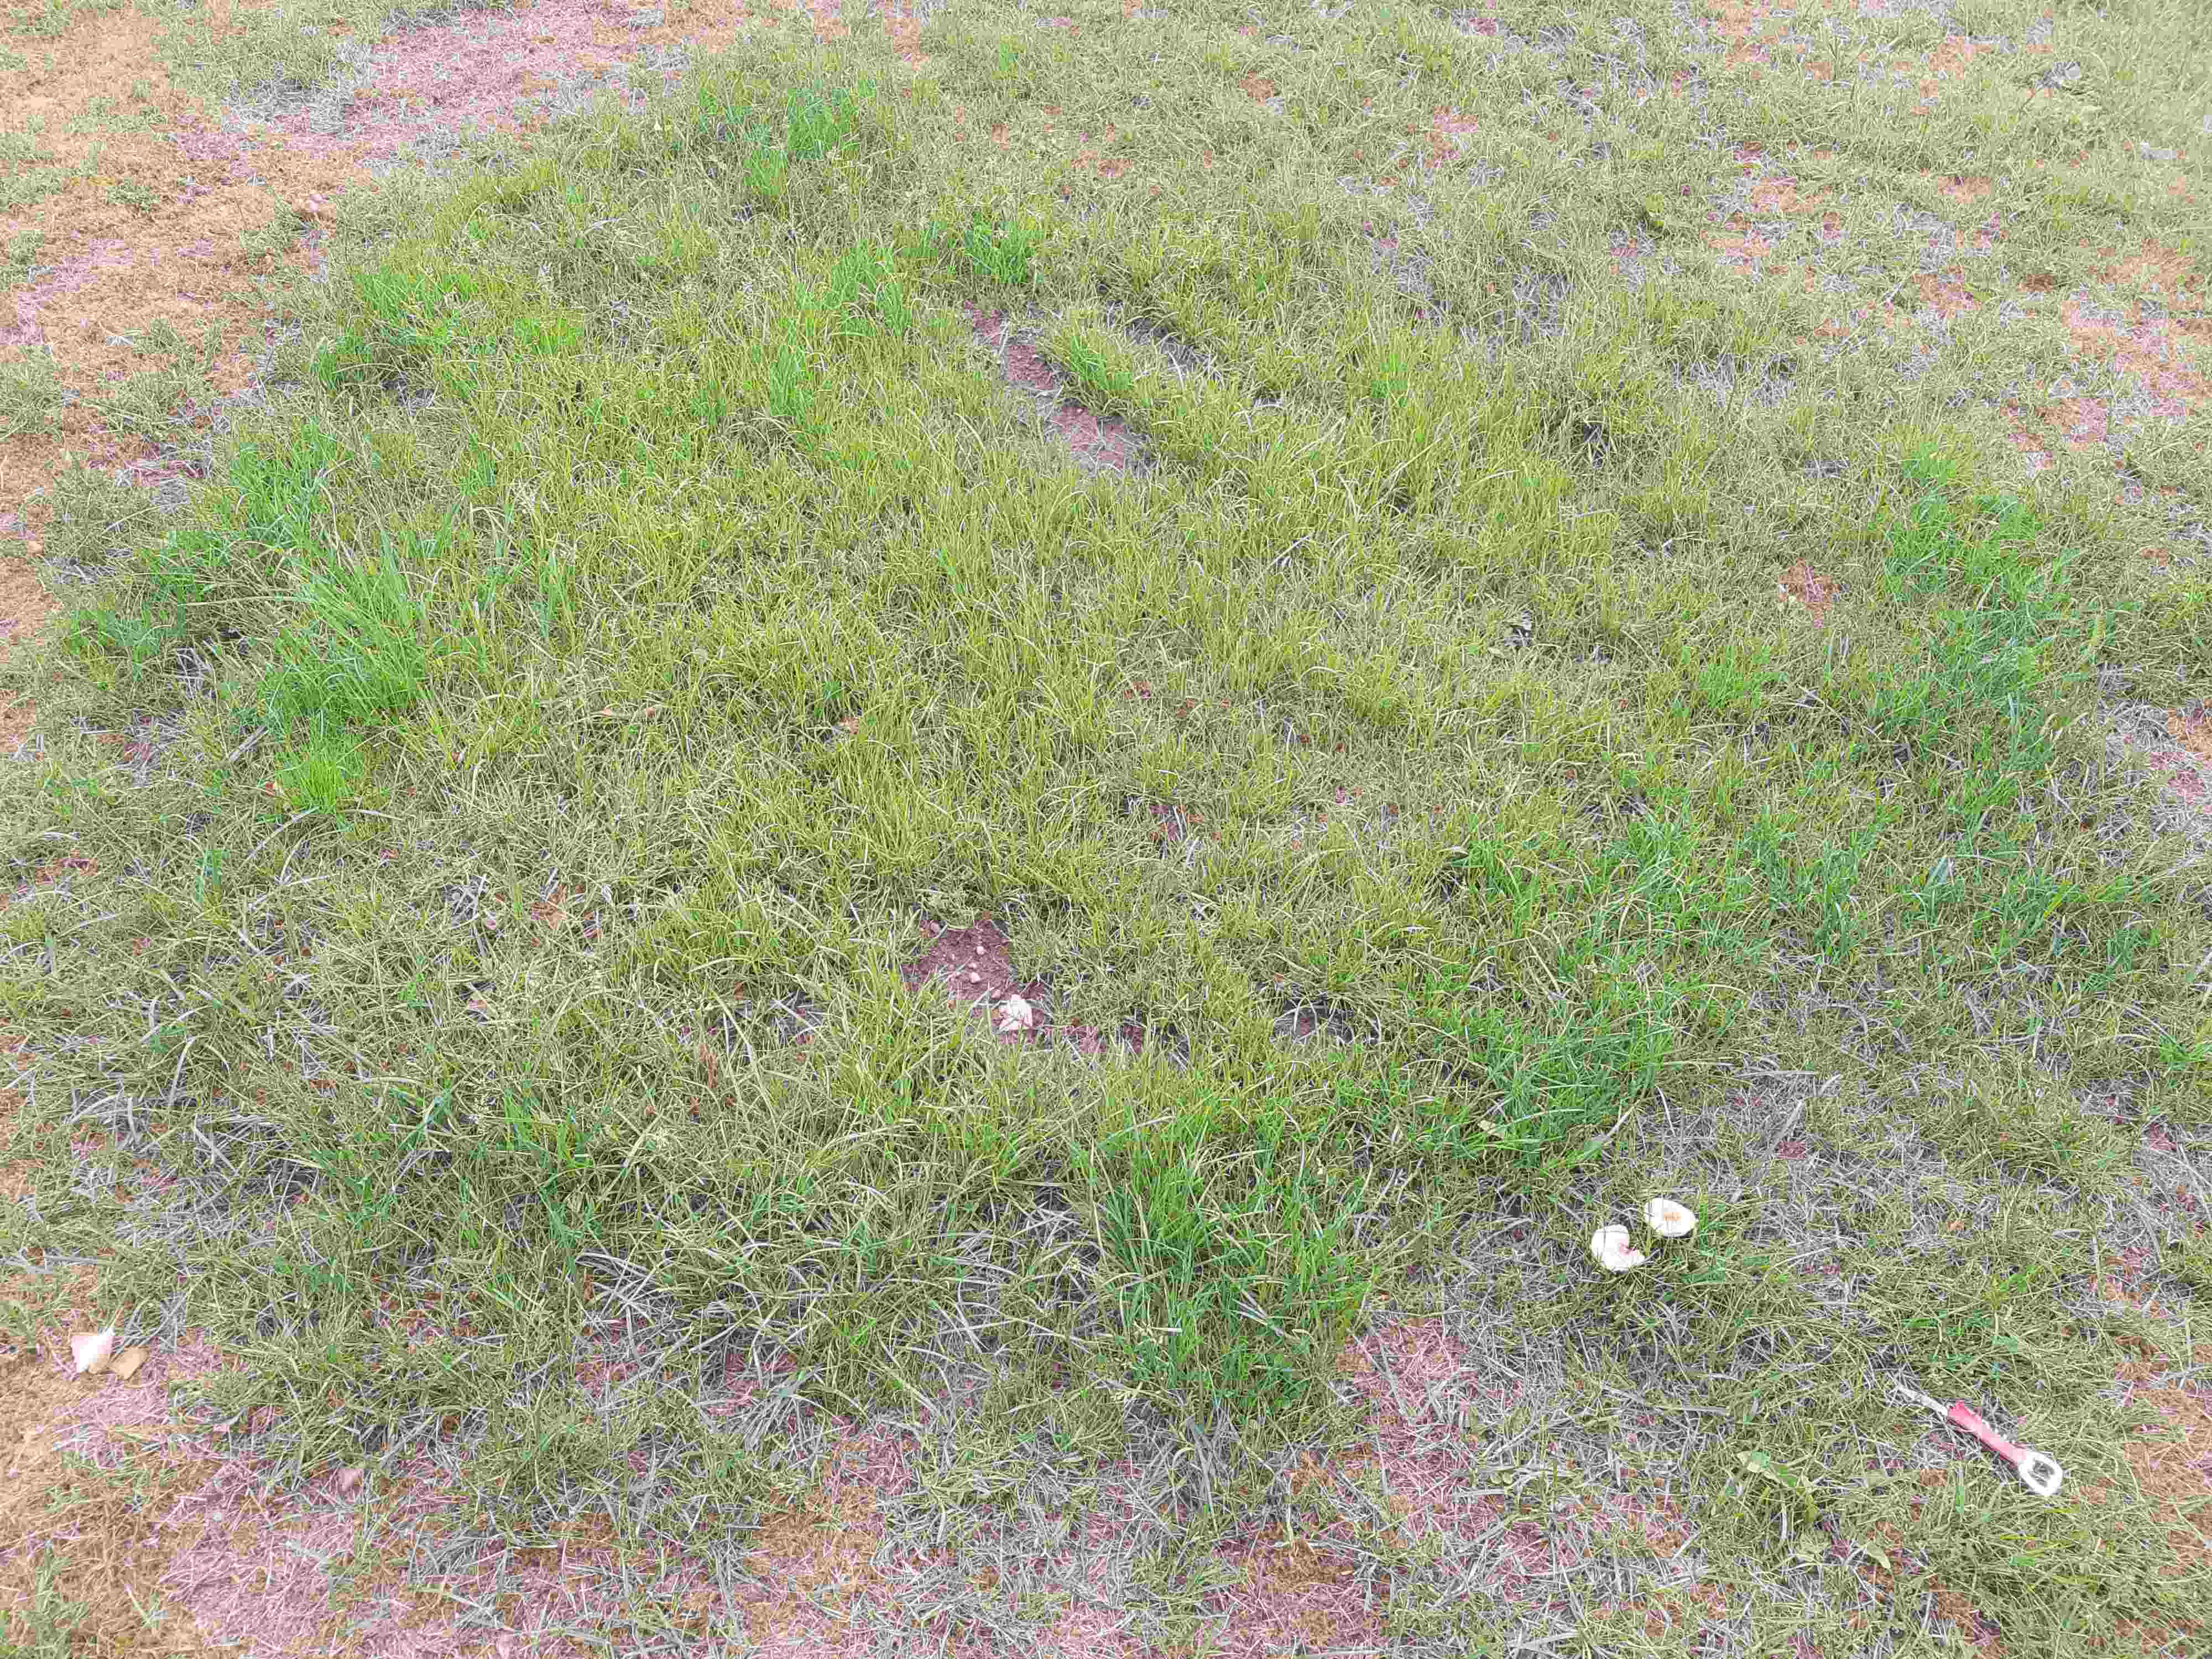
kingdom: Fungi
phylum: Basidiomycota
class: Agaricomycetes
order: Agaricales
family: Marasmiaceae
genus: Marasmius
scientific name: Marasmius oreades
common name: elledans-bruskhat
